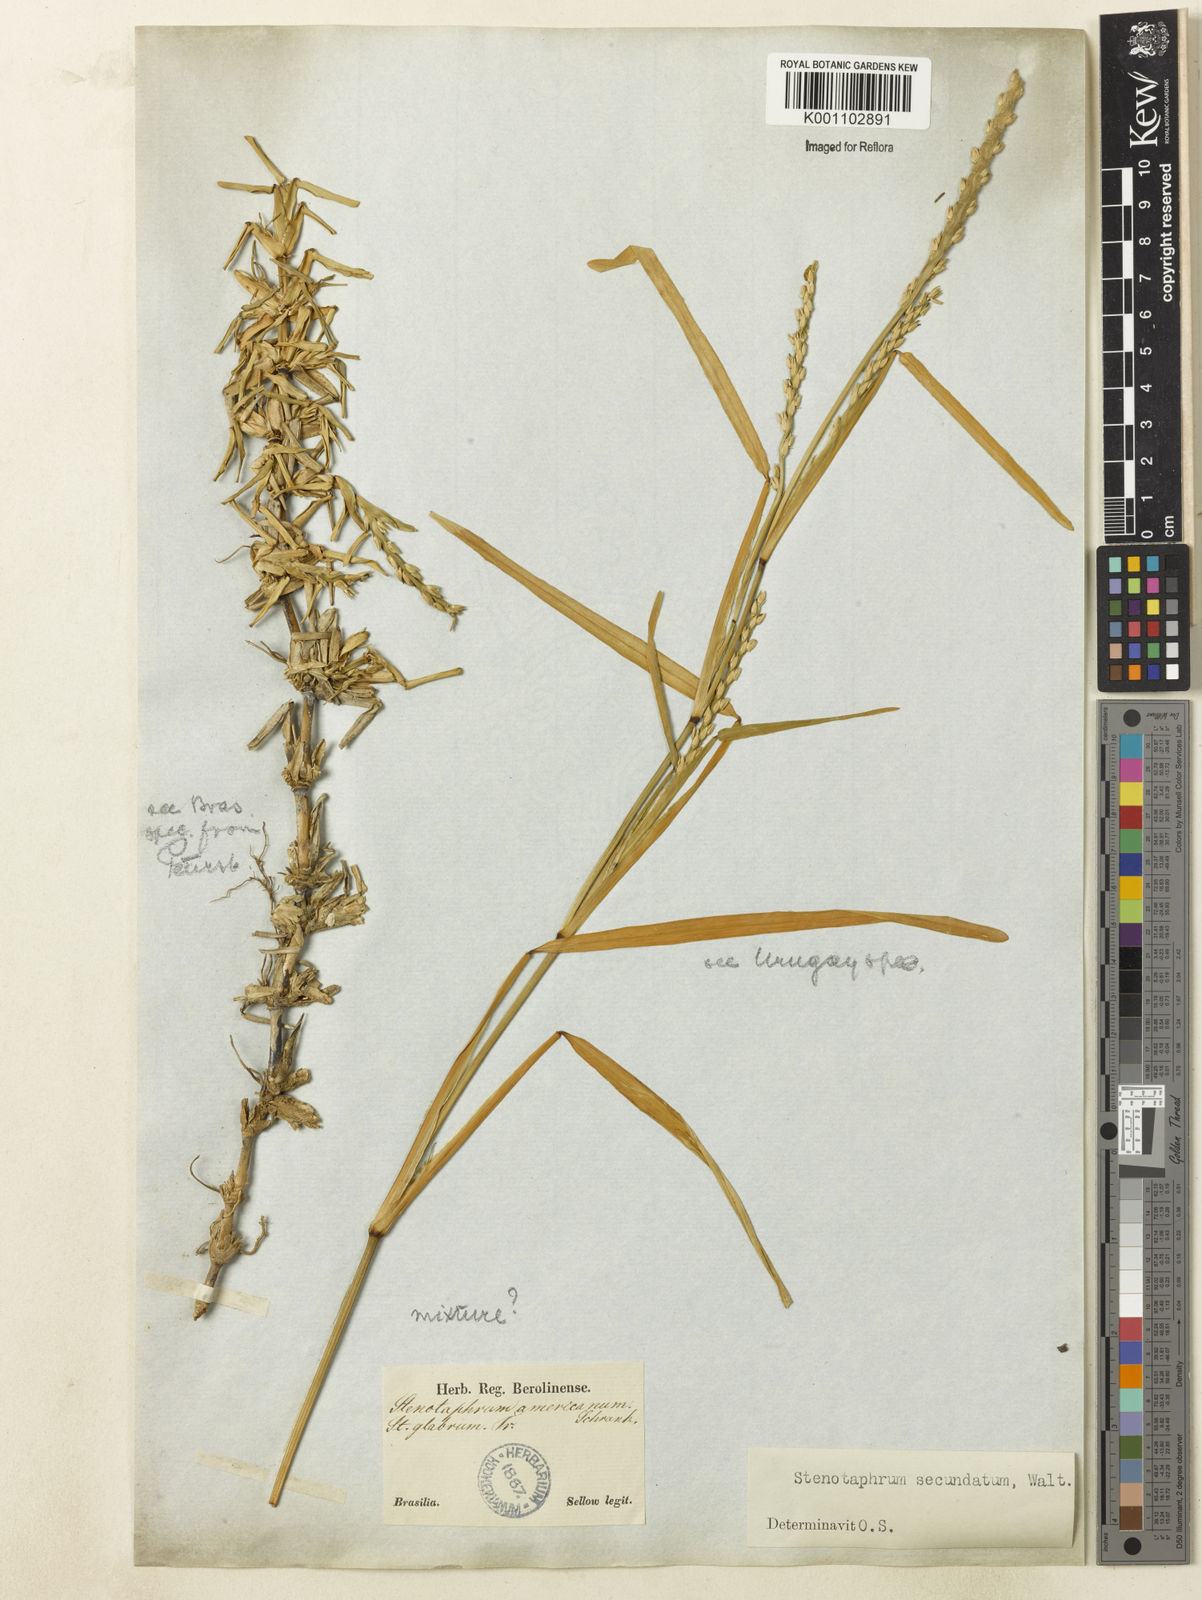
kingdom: Plantae
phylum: Tracheophyta
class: Liliopsida
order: Poales
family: Poaceae
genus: Stenotaphrum
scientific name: Stenotaphrum secundatum
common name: St. augustine grass
